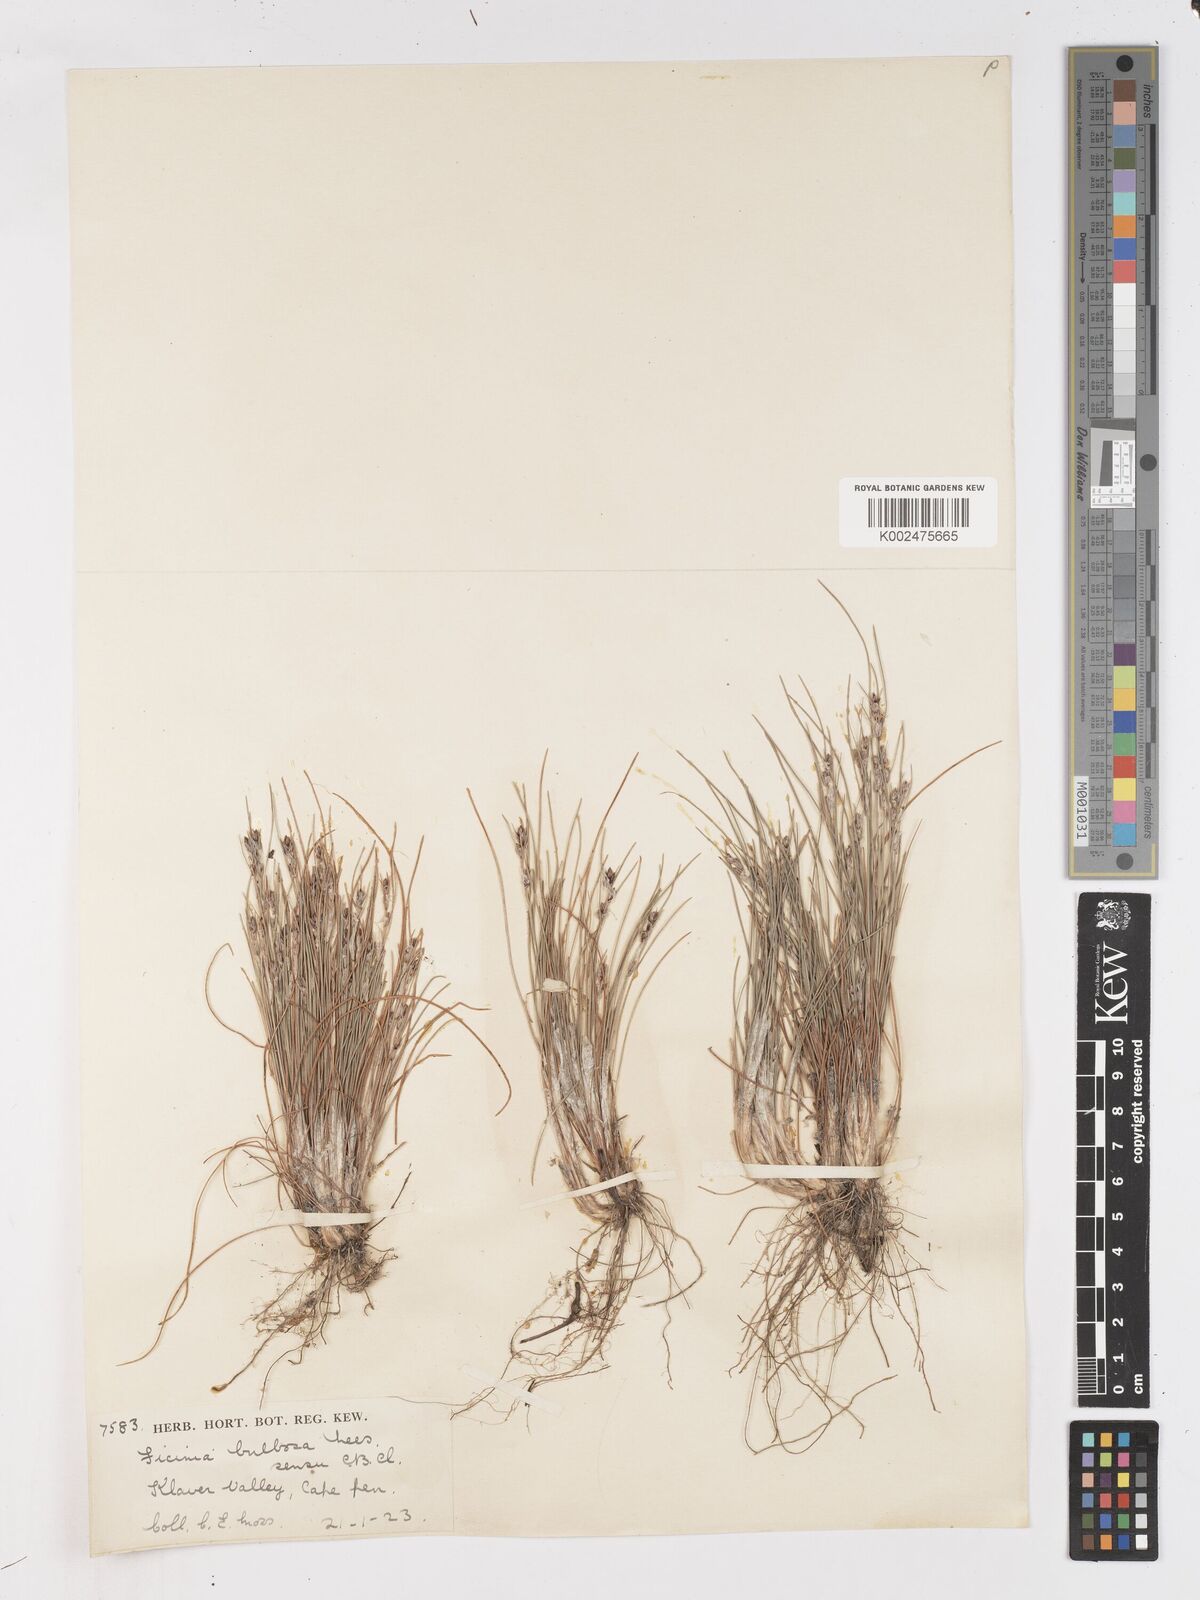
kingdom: Plantae
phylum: Tracheophyta
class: Liliopsida
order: Poales
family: Cyperaceae
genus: Ficinia
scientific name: Ficinia bulbosa
